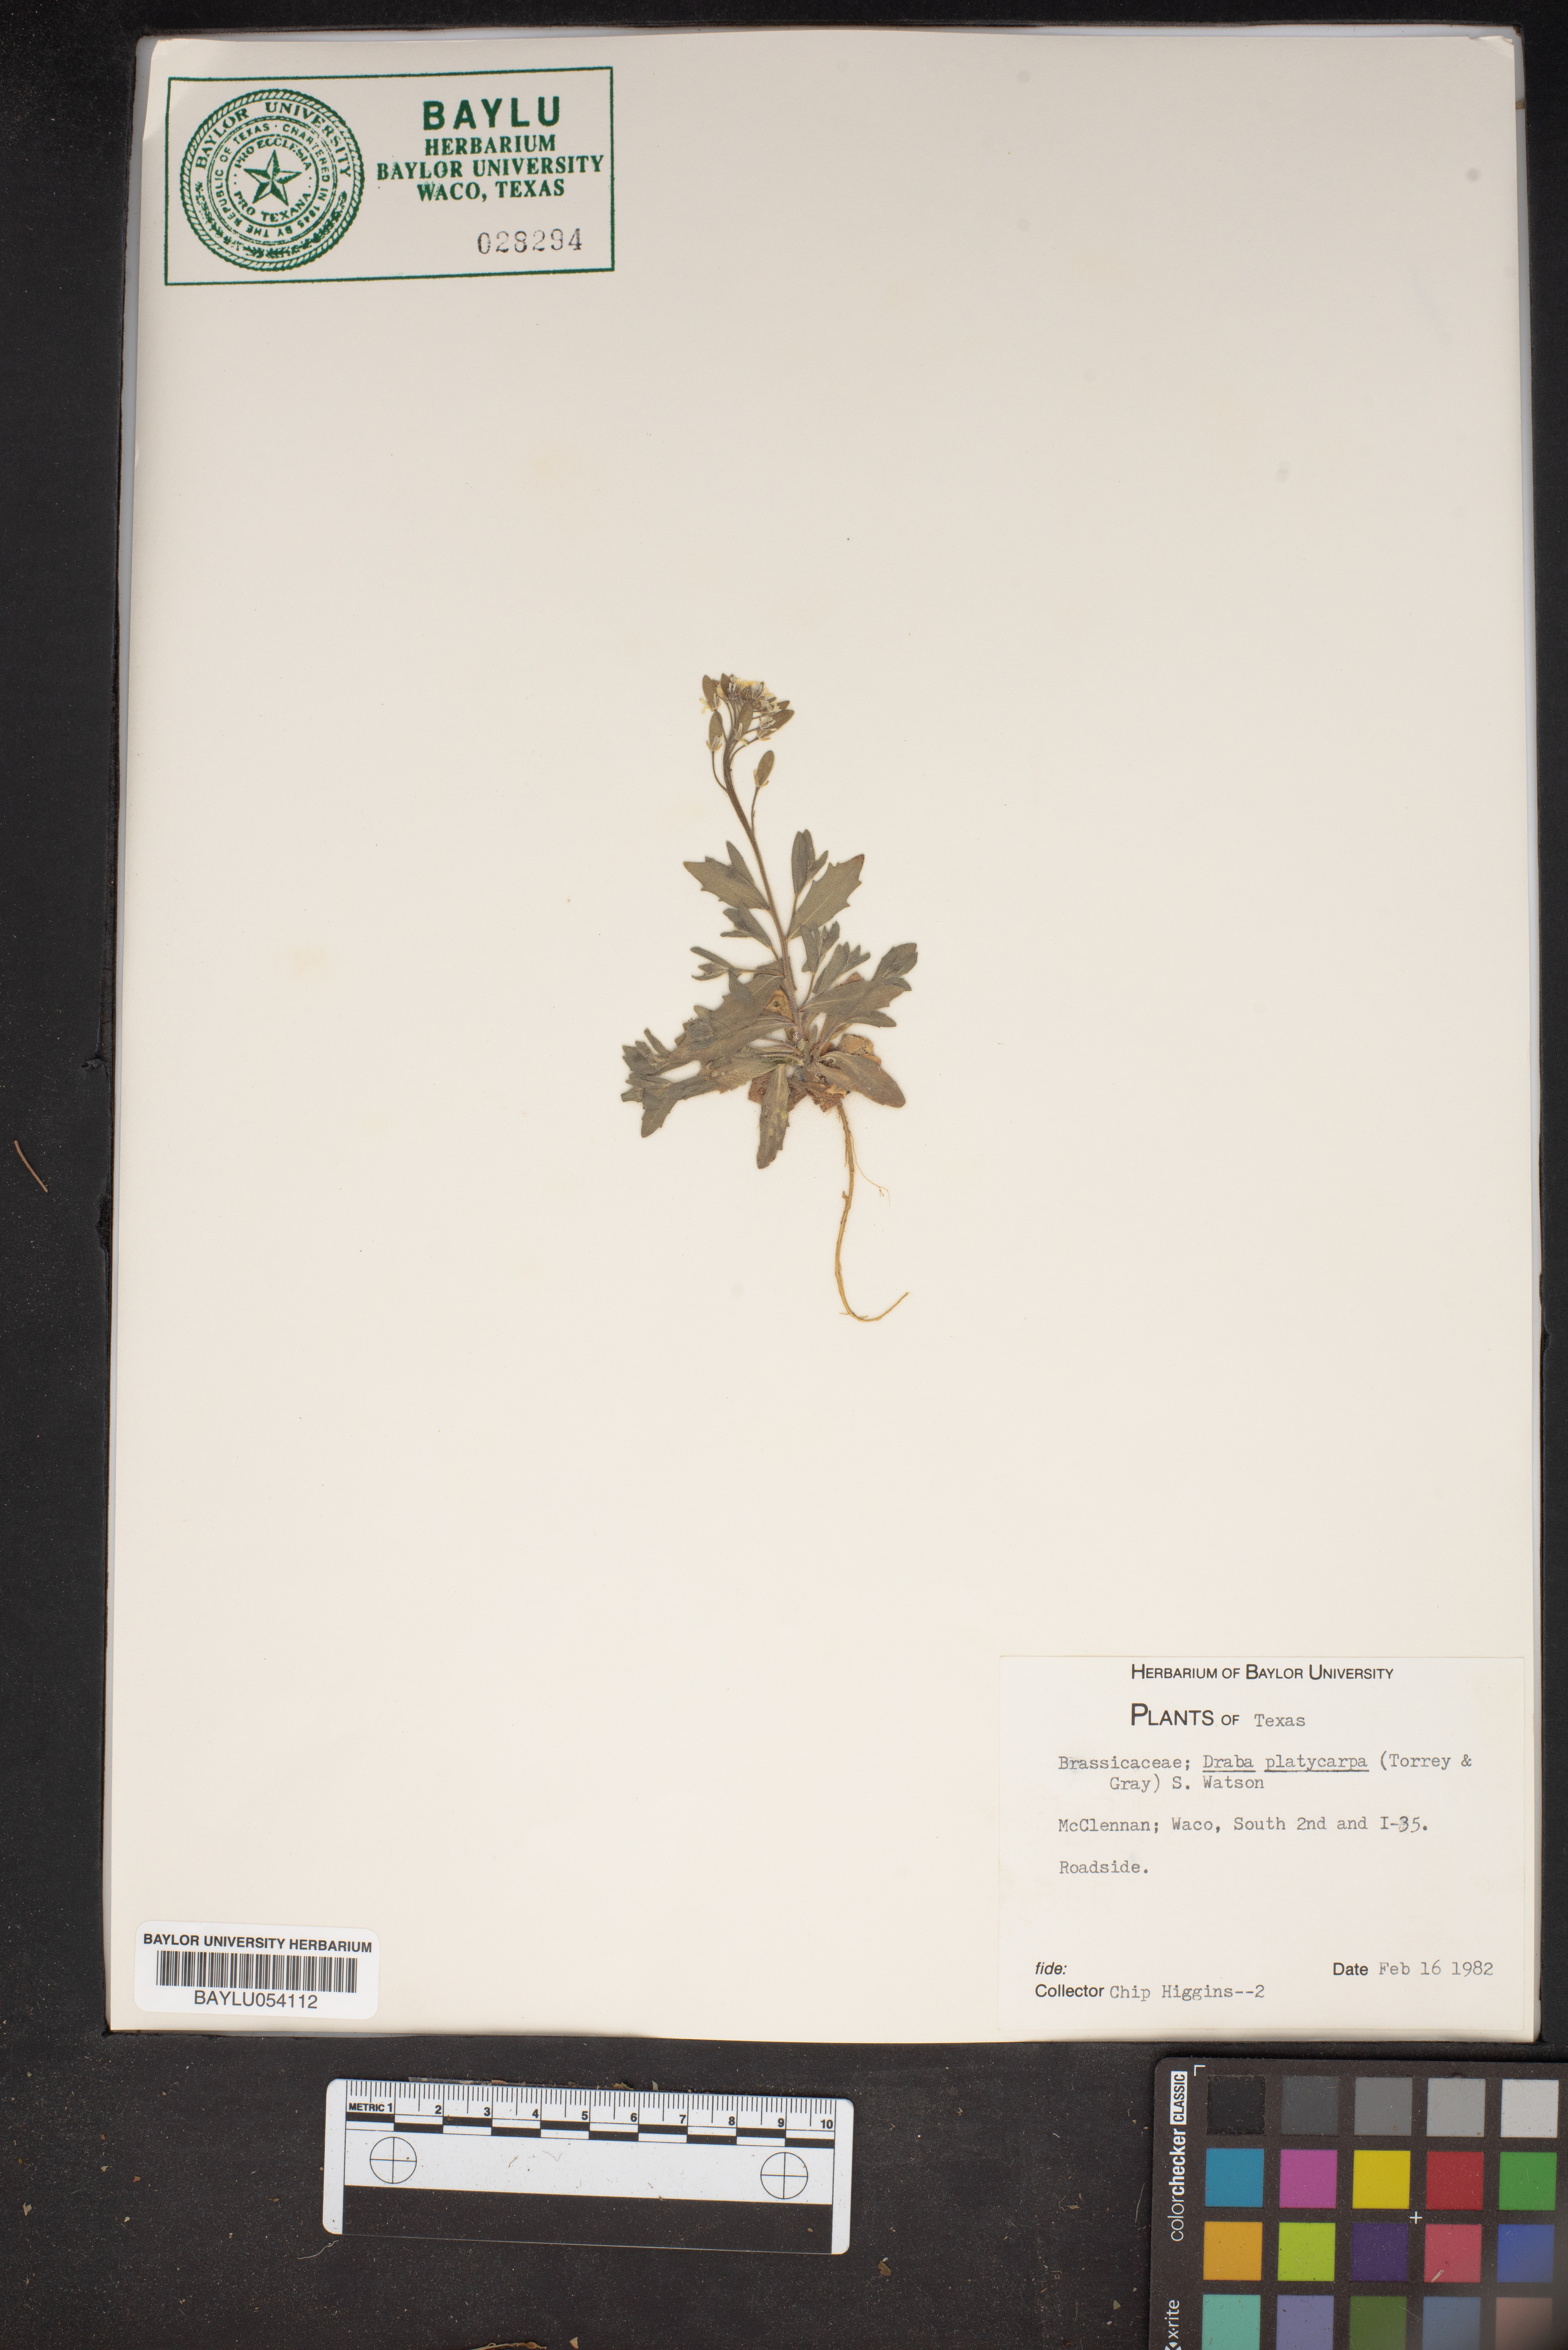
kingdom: Plantae
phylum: Tracheophyta
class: Magnoliopsida
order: Brassicales
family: Brassicaceae
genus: Tomostima
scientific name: Tomostima platycarpa
